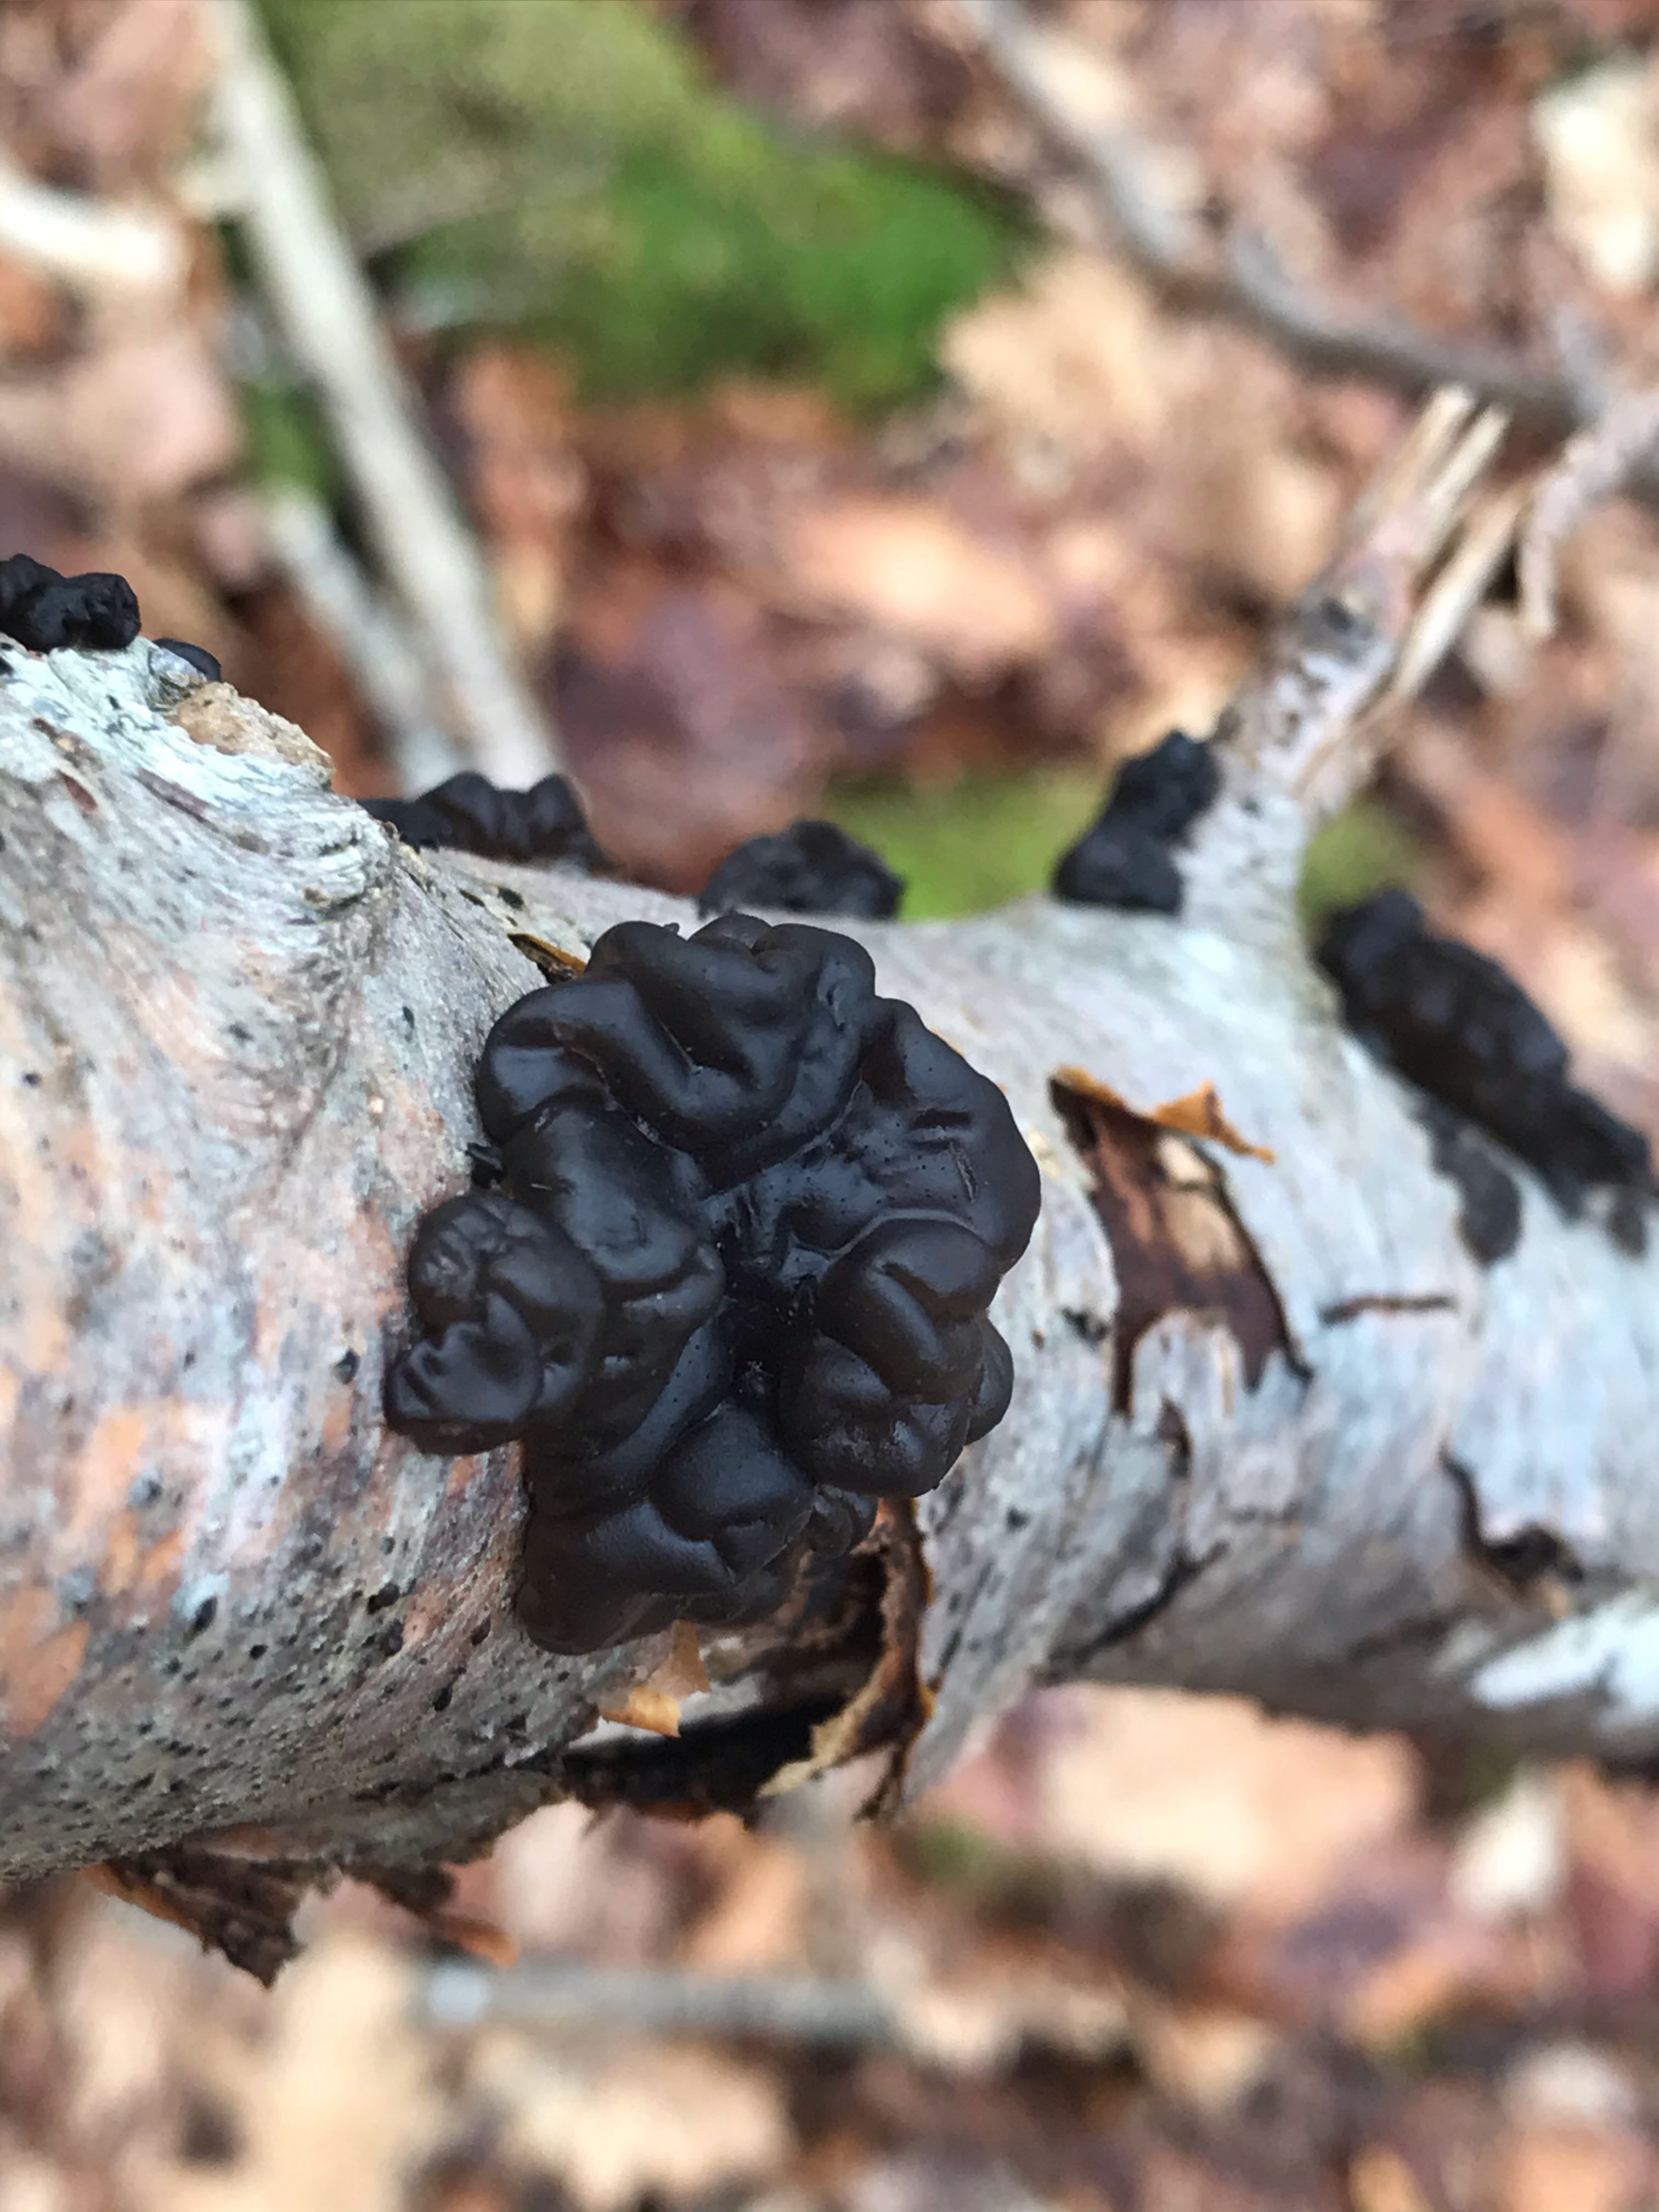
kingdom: Fungi
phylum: Basidiomycota
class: Agaricomycetes
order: Auriculariales
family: Auriculariaceae
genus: Exidia
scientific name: Exidia nigricans
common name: almindelig bævretop
